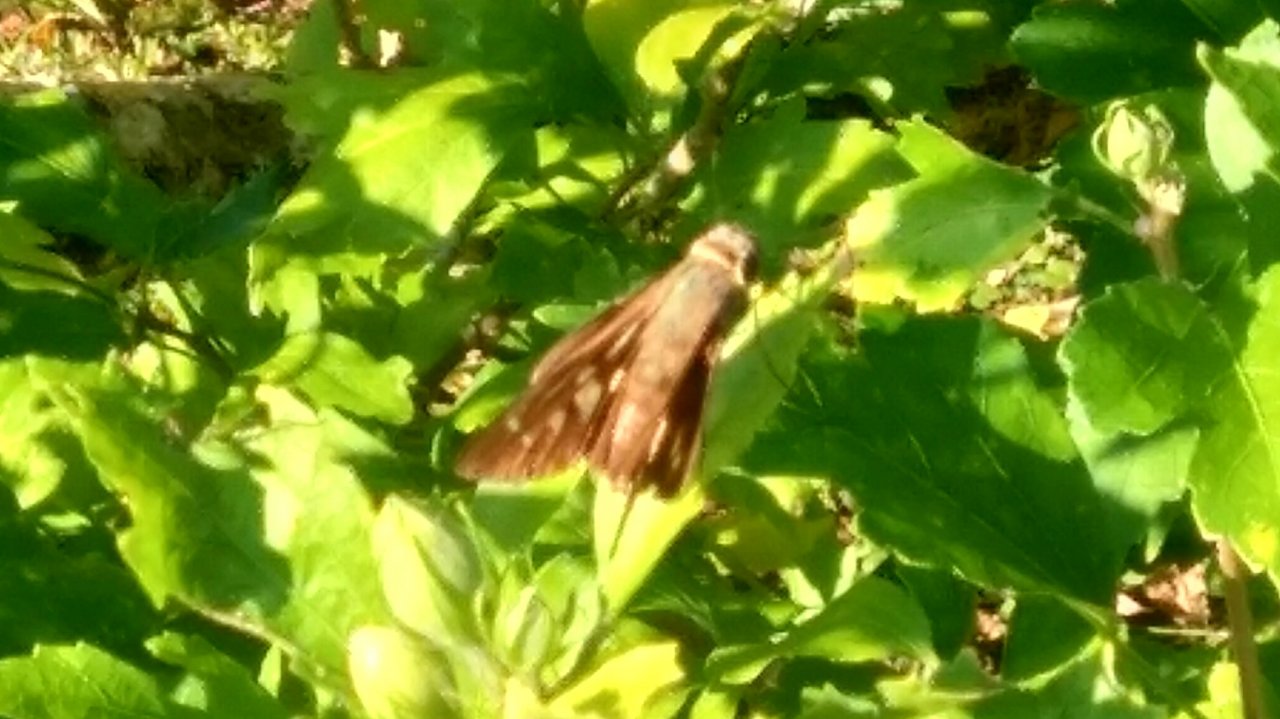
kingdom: Animalia
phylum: Arthropoda
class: Insecta
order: Lepidoptera
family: Hesperiidae
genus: Calpodes
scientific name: Calpodes ethlius
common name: Brazilian Skipper
